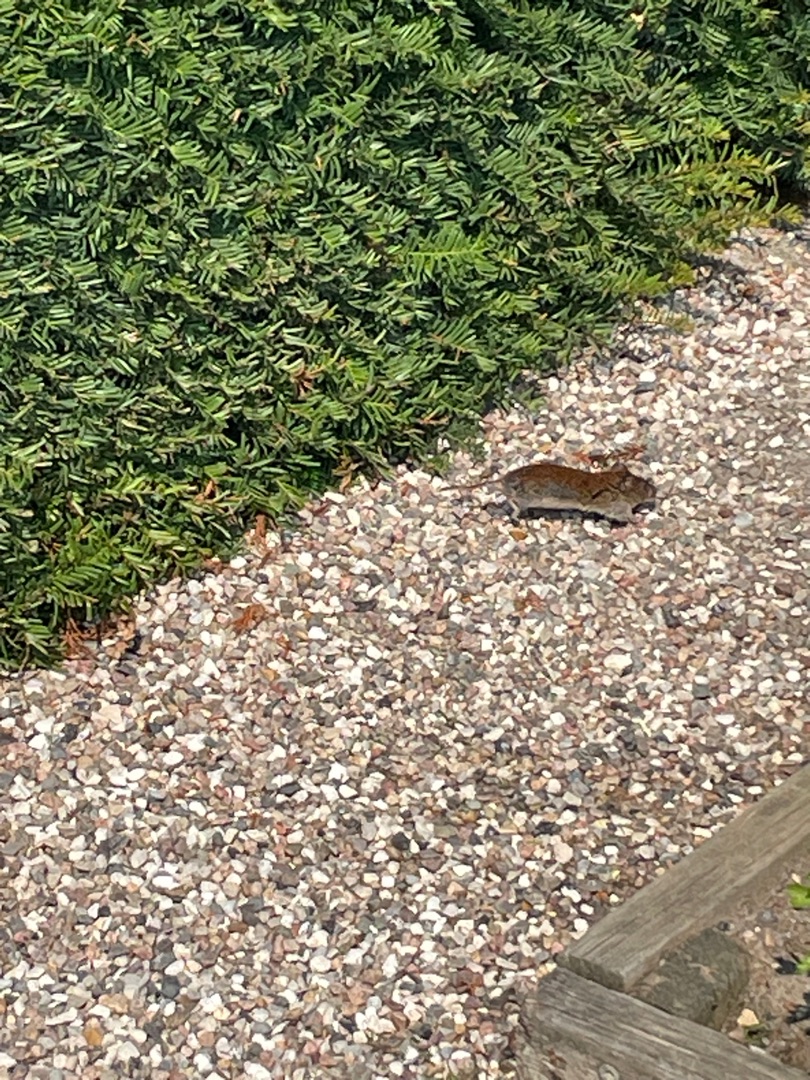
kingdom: Animalia
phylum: Chordata
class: Mammalia
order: Rodentia
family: Cricetidae
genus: Myodes
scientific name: Myodes glareolus
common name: Rødmus
